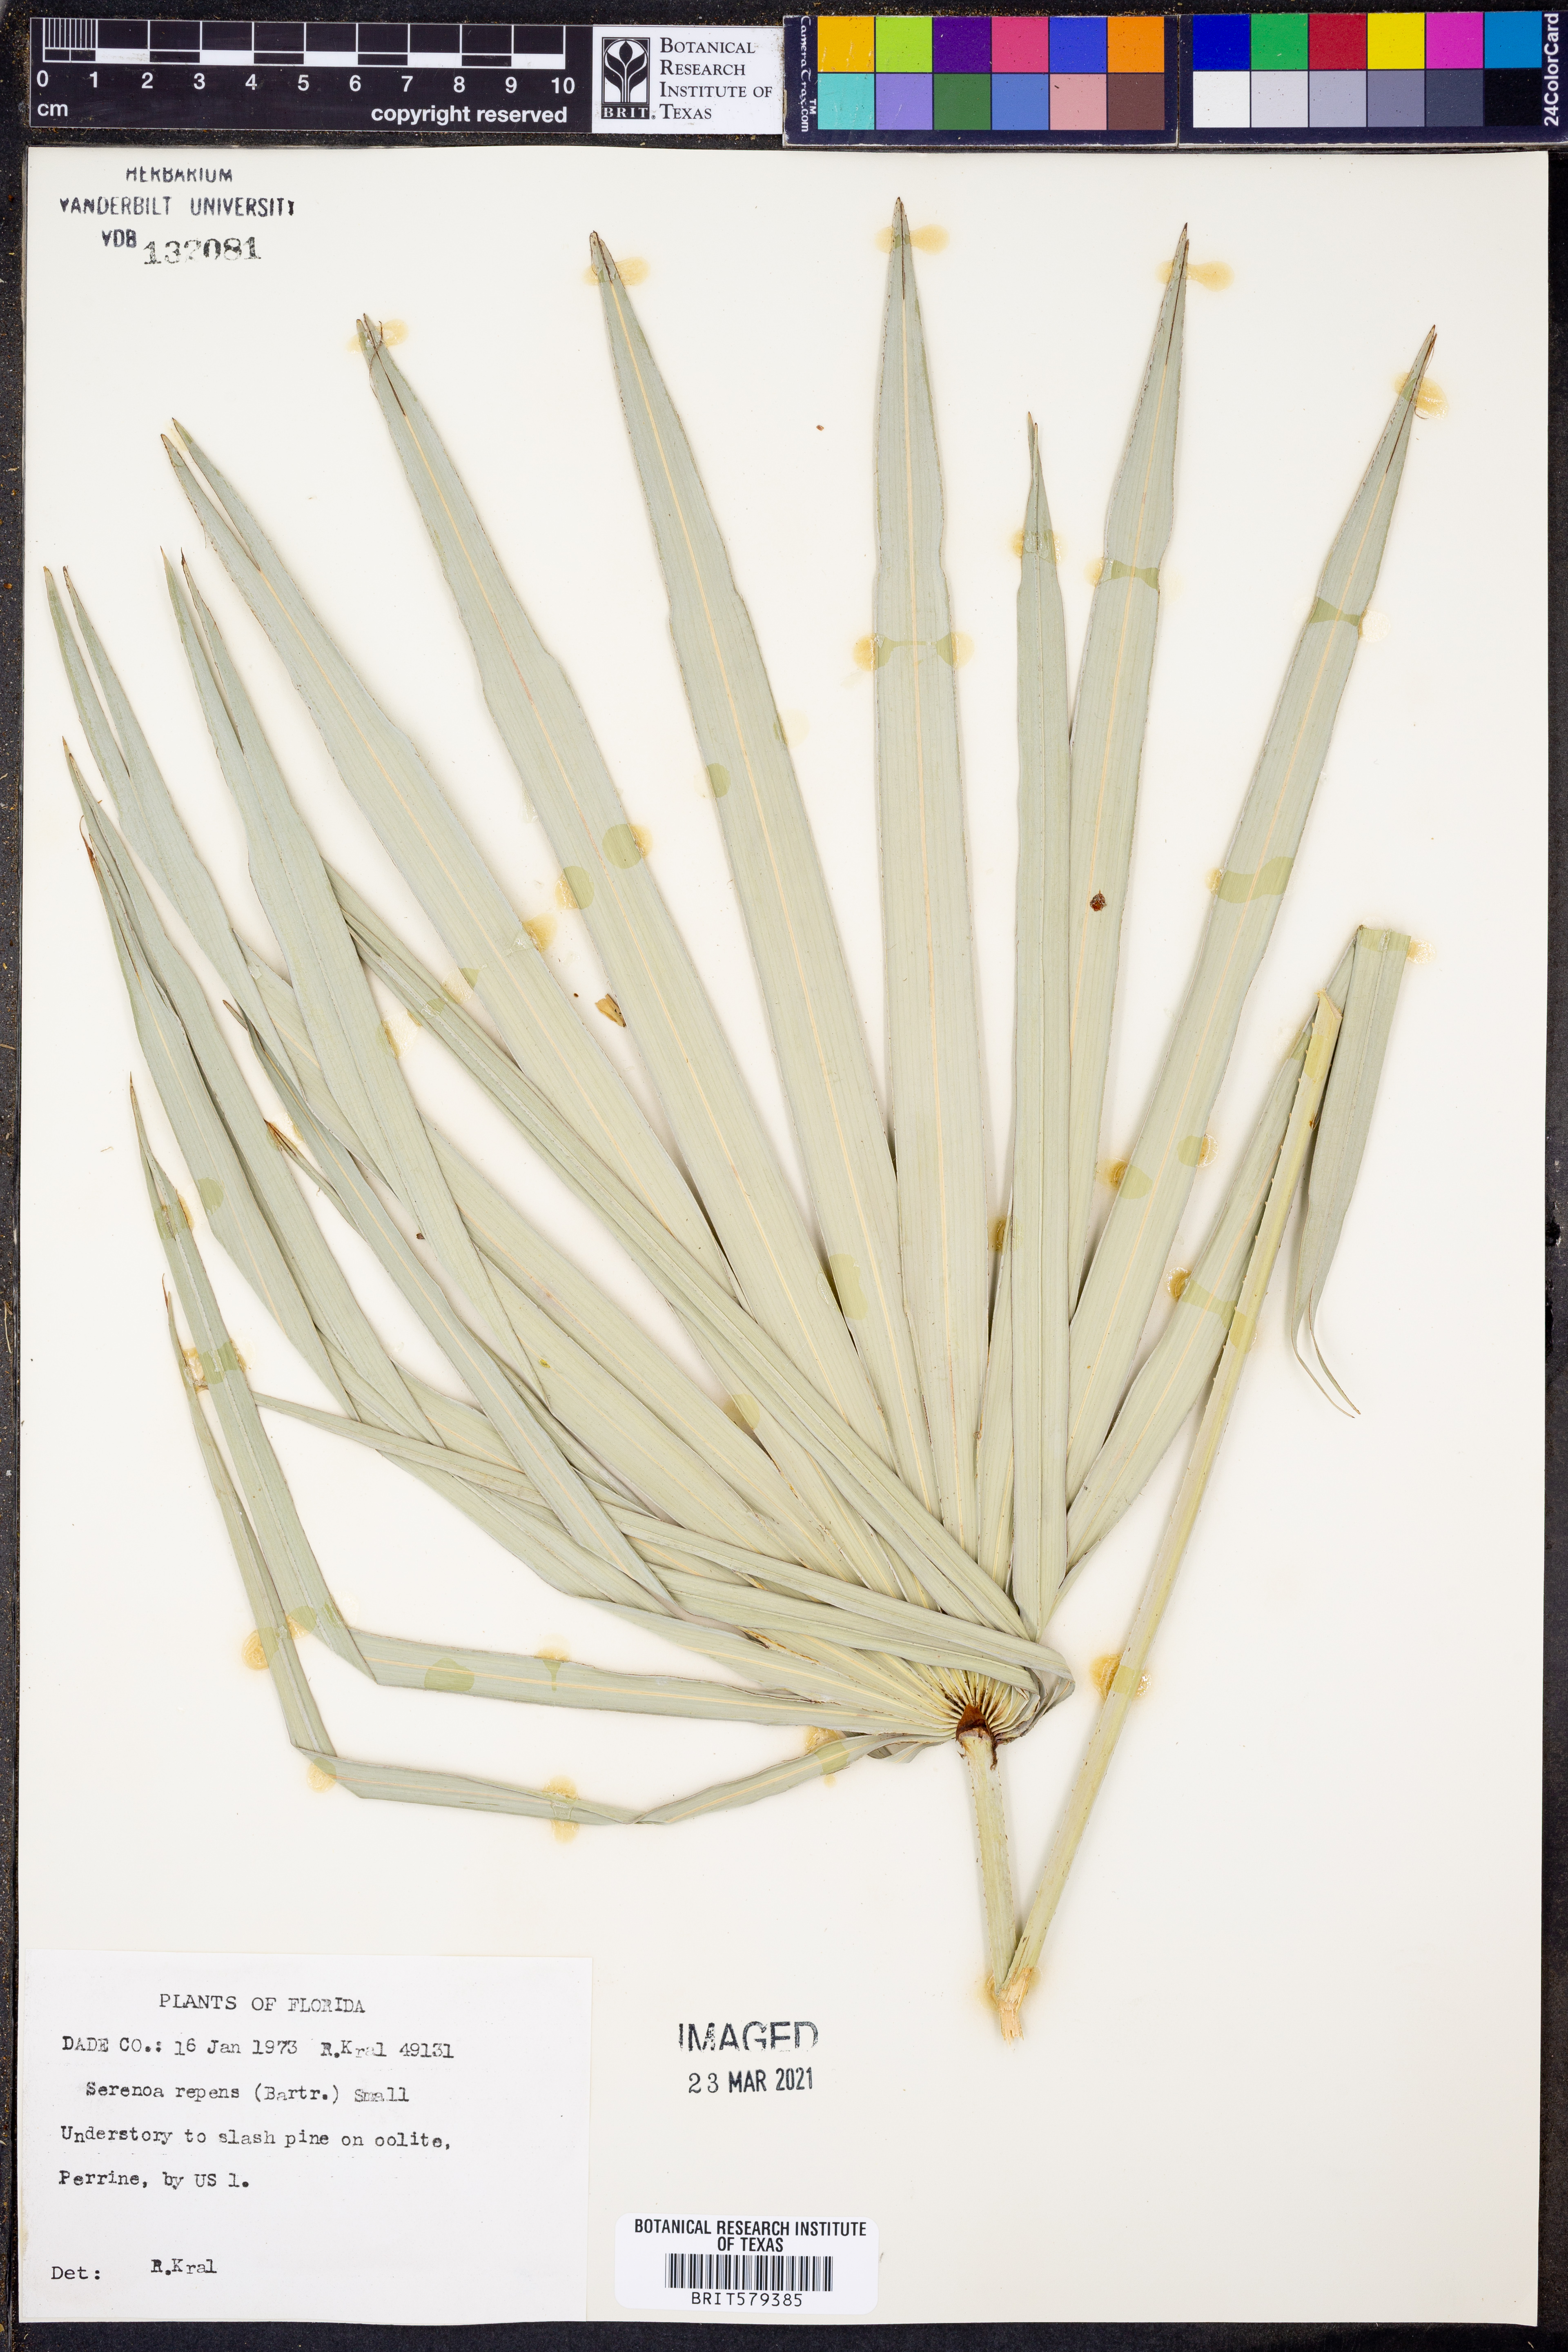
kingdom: Plantae
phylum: Tracheophyta
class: Liliopsida
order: Arecales
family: Arecaceae
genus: Serenoa
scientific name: Serenoa repens
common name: Saw-palmetto
